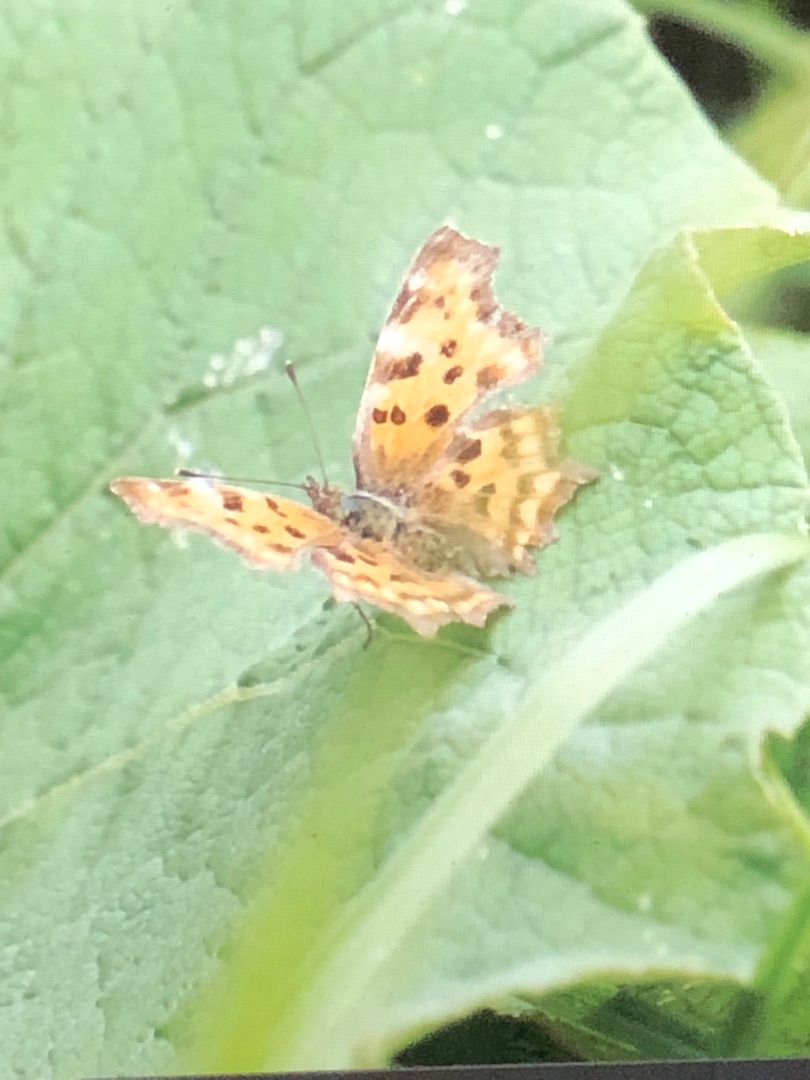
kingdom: Animalia
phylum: Arthropoda
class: Insecta
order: Lepidoptera
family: Nymphalidae
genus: Polygonia
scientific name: Polygonia c-album
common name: Det hvide C
